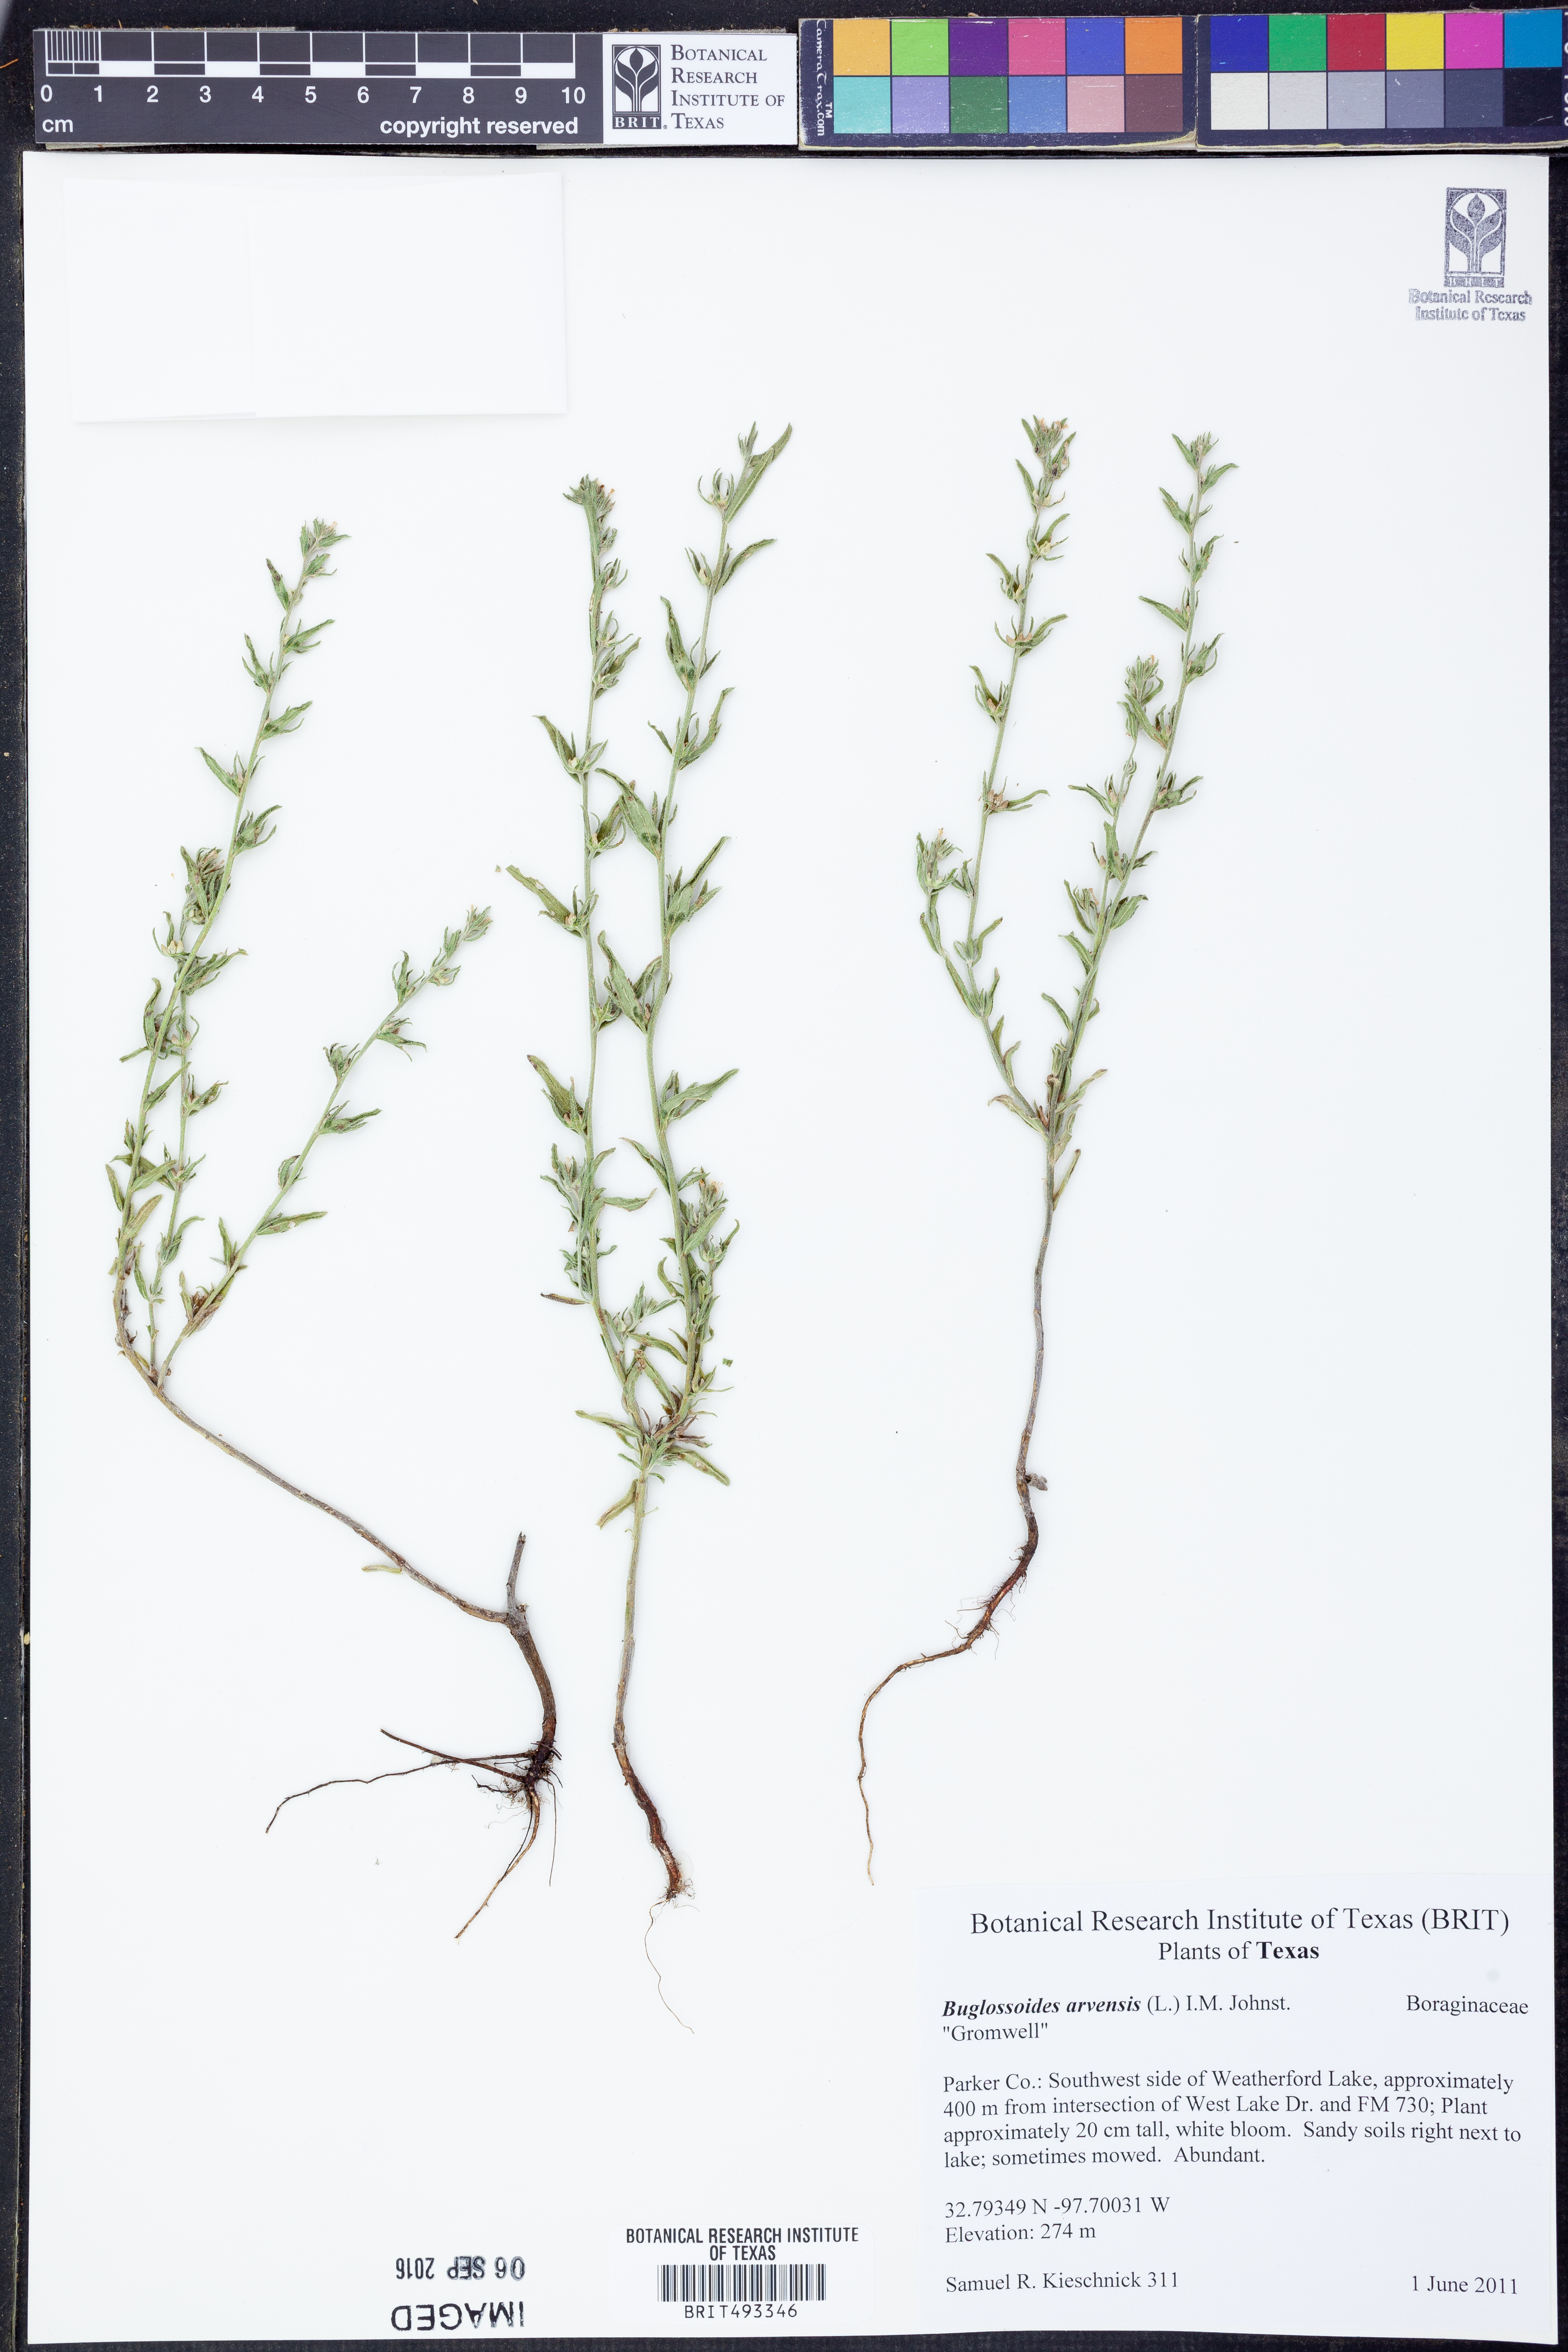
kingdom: Plantae
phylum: Tracheophyta
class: Magnoliopsida
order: Boraginales
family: Boraginaceae
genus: Buglossoides
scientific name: Buglossoides arvensis
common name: Corn gromwell
